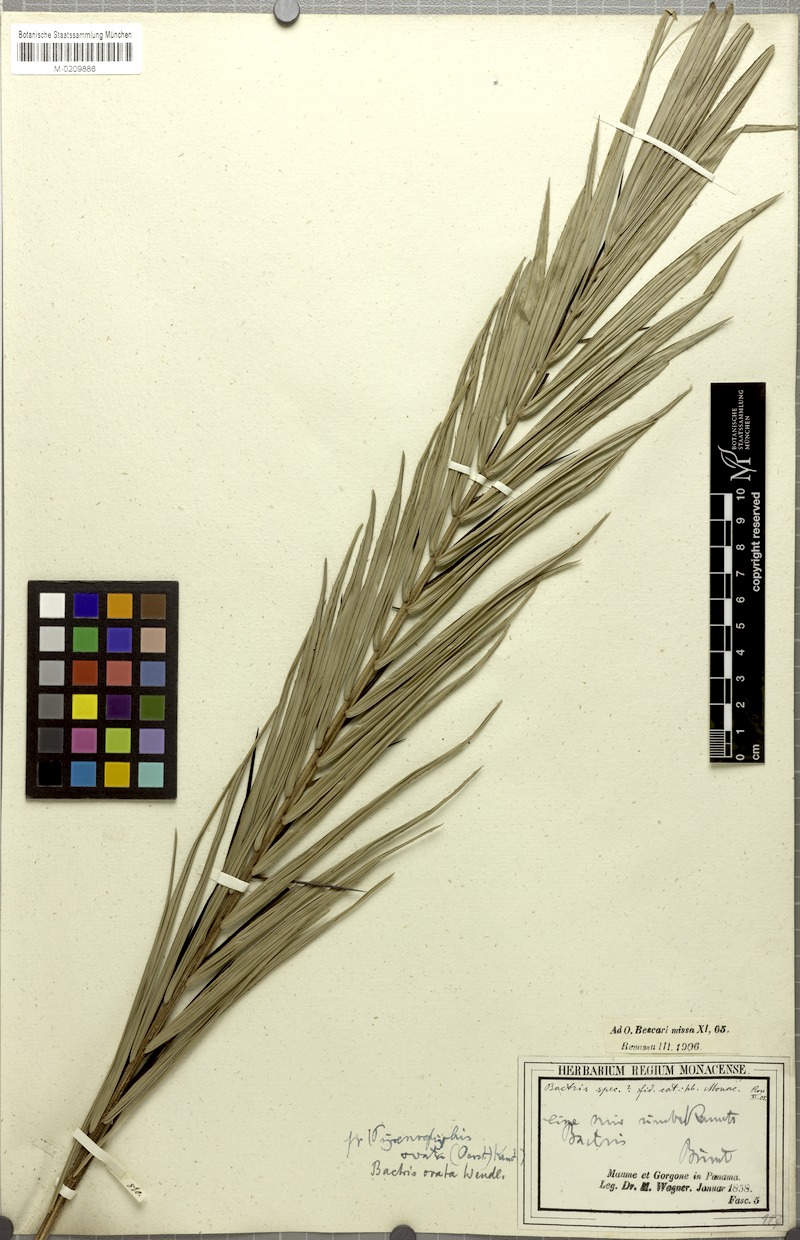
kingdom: Plantae
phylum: Tracheophyta
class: Liliopsida
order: Arecales
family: Arecaceae
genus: Bactris
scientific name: Bactris major
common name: Beach palm
